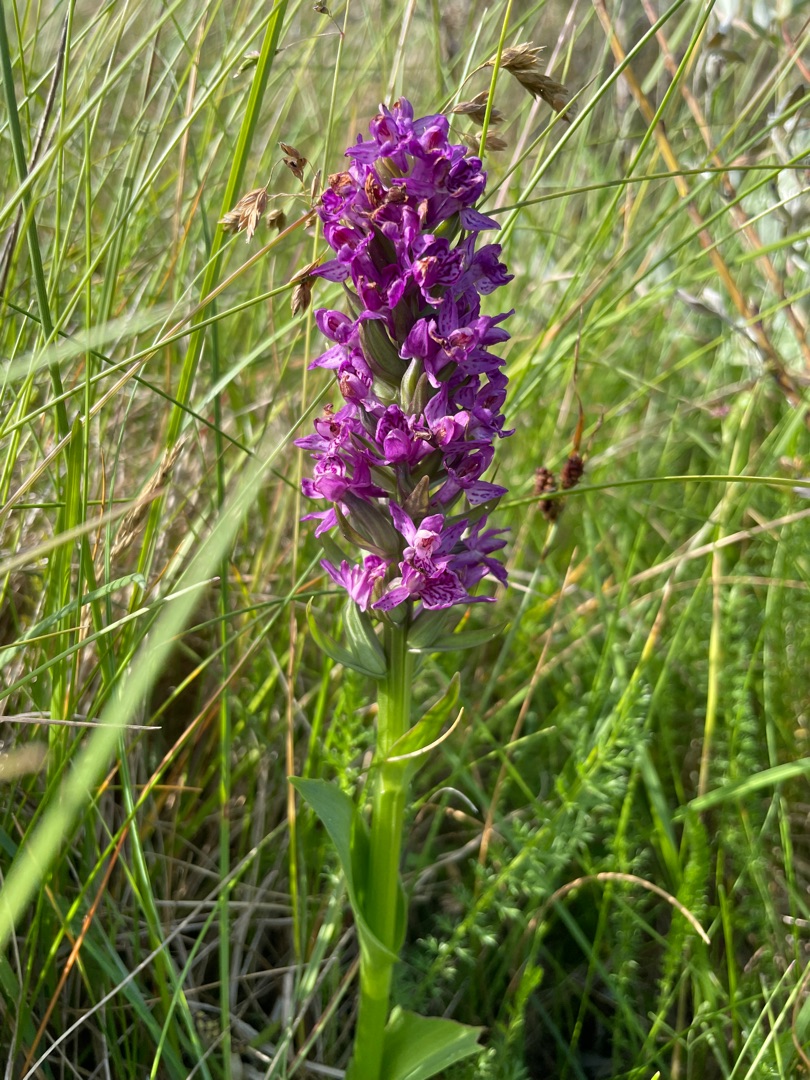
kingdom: Plantae
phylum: Tracheophyta
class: Liliopsida
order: Asparagales
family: Orchidaceae
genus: Dactylorhiza
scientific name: Dactylorhiza majalis
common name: Purpur-gøgeurt
